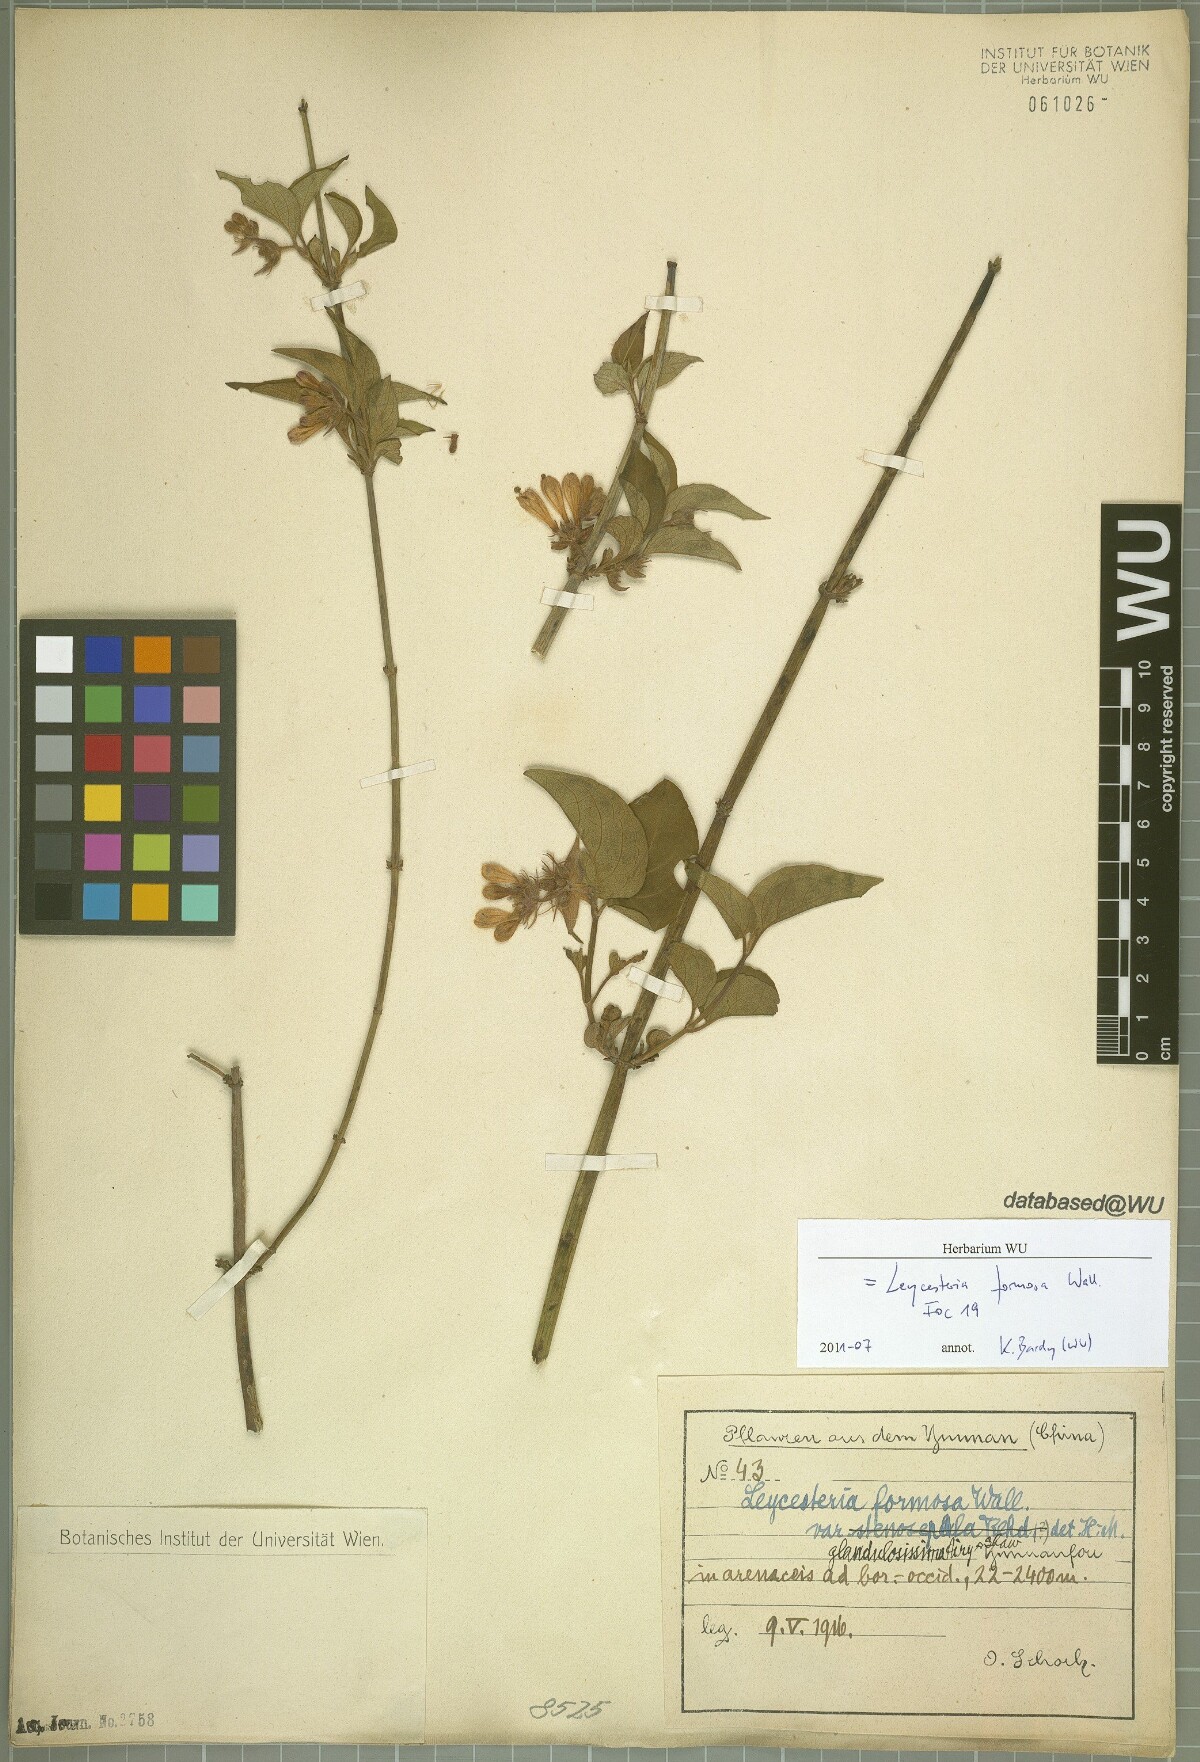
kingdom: Plantae
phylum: Tracheophyta
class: Magnoliopsida
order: Dipsacales
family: Caprifoliaceae
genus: Leycesteria
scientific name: Leycesteria formosa
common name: Himalayan honeysuckle
